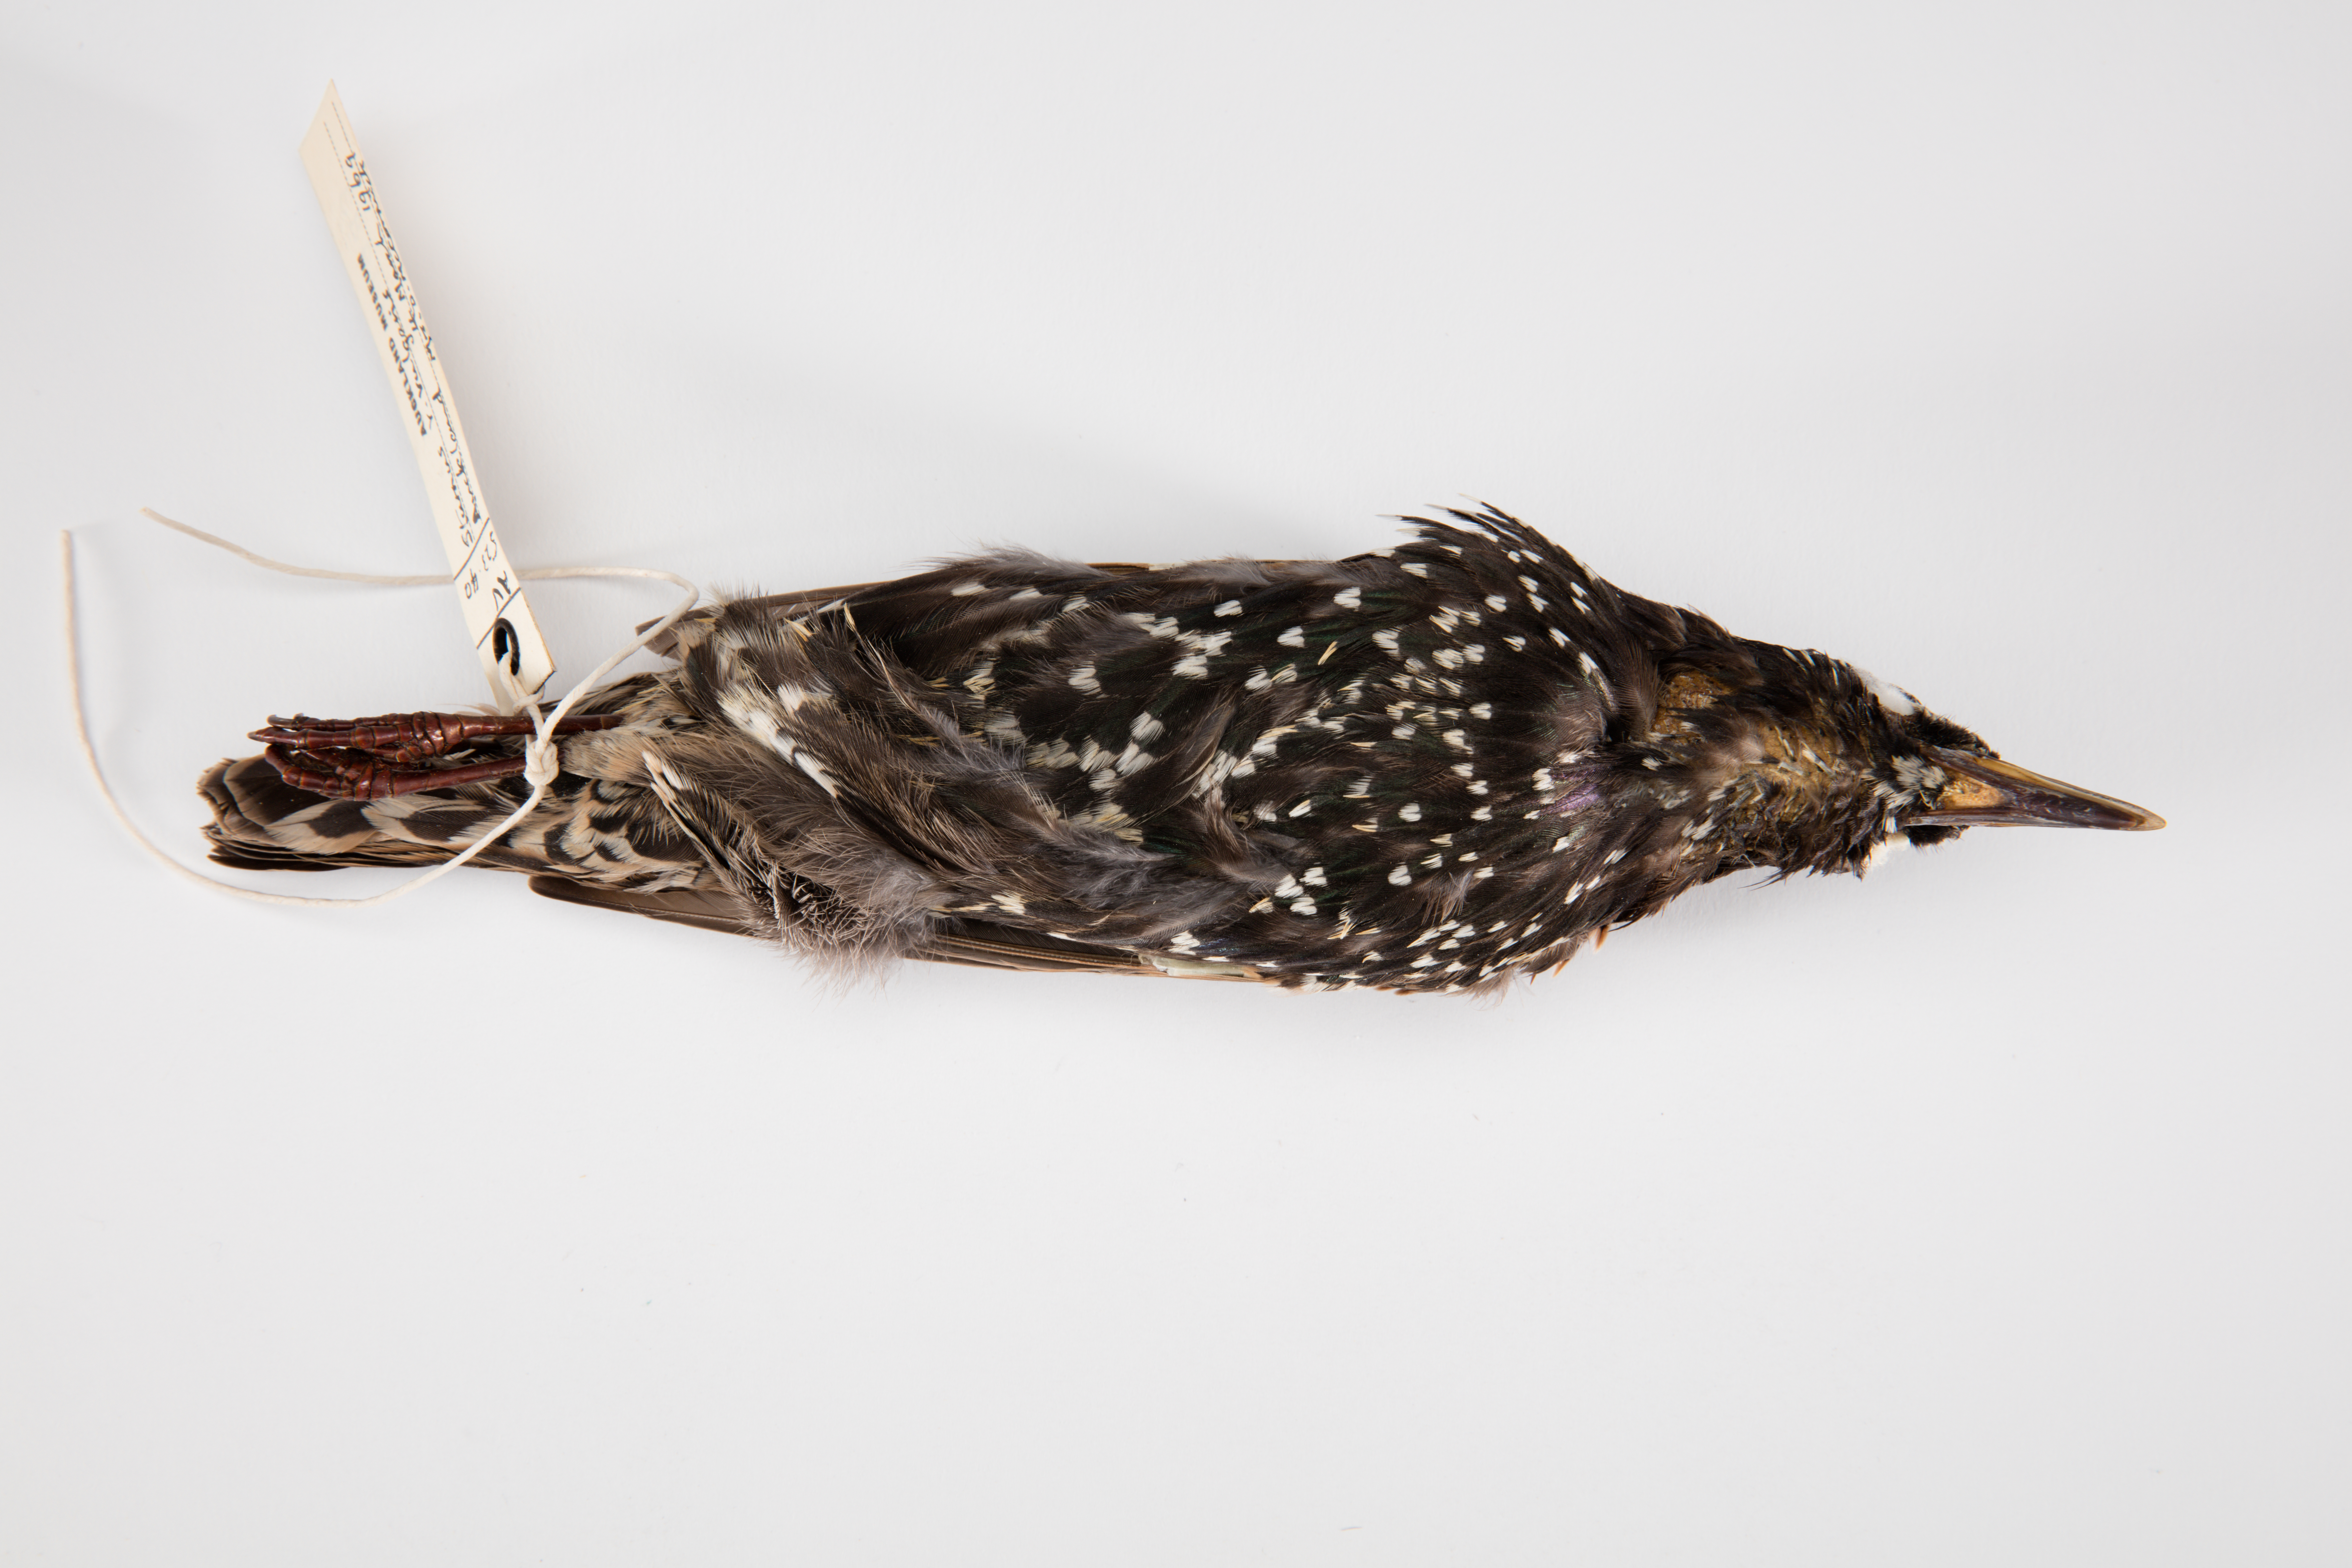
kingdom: Animalia
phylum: Chordata
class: Aves
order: Passeriformes
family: Sturnidae
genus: Sturnus
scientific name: Sturnus vulgaris
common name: Common starling
